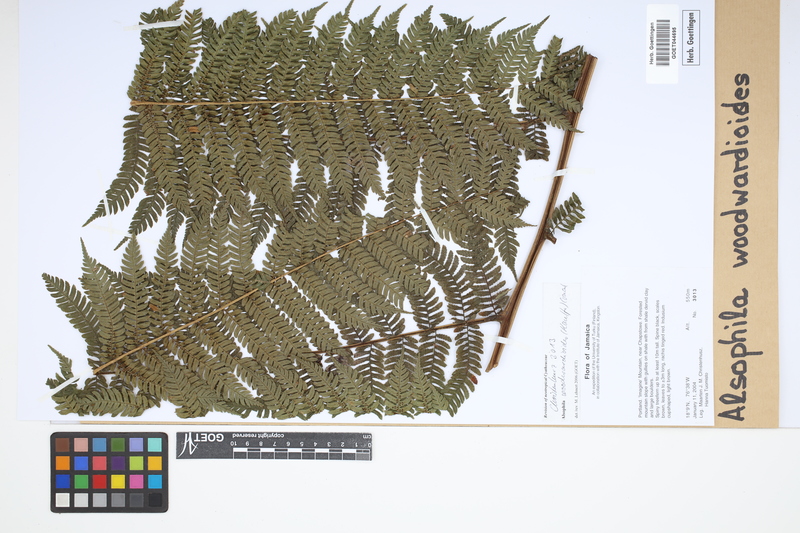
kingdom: Plantae
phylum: Tracheophyta
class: Polypodiopsida
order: Cyatheales
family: Cyatheaceae
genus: Alsophila
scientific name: Alsophila woodwardioides
